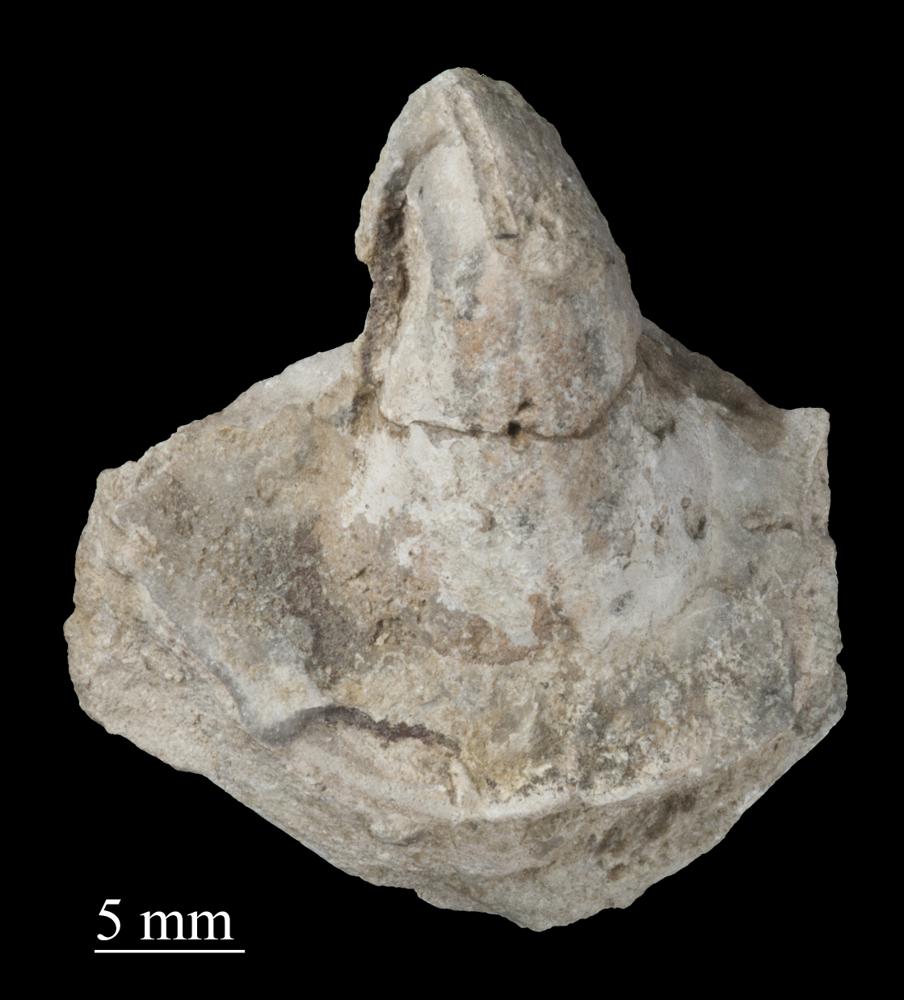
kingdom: Animalia
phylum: Mollusca
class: Gastropoda
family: Bucaniidae
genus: Salpingostoma
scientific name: Salpingostoma
